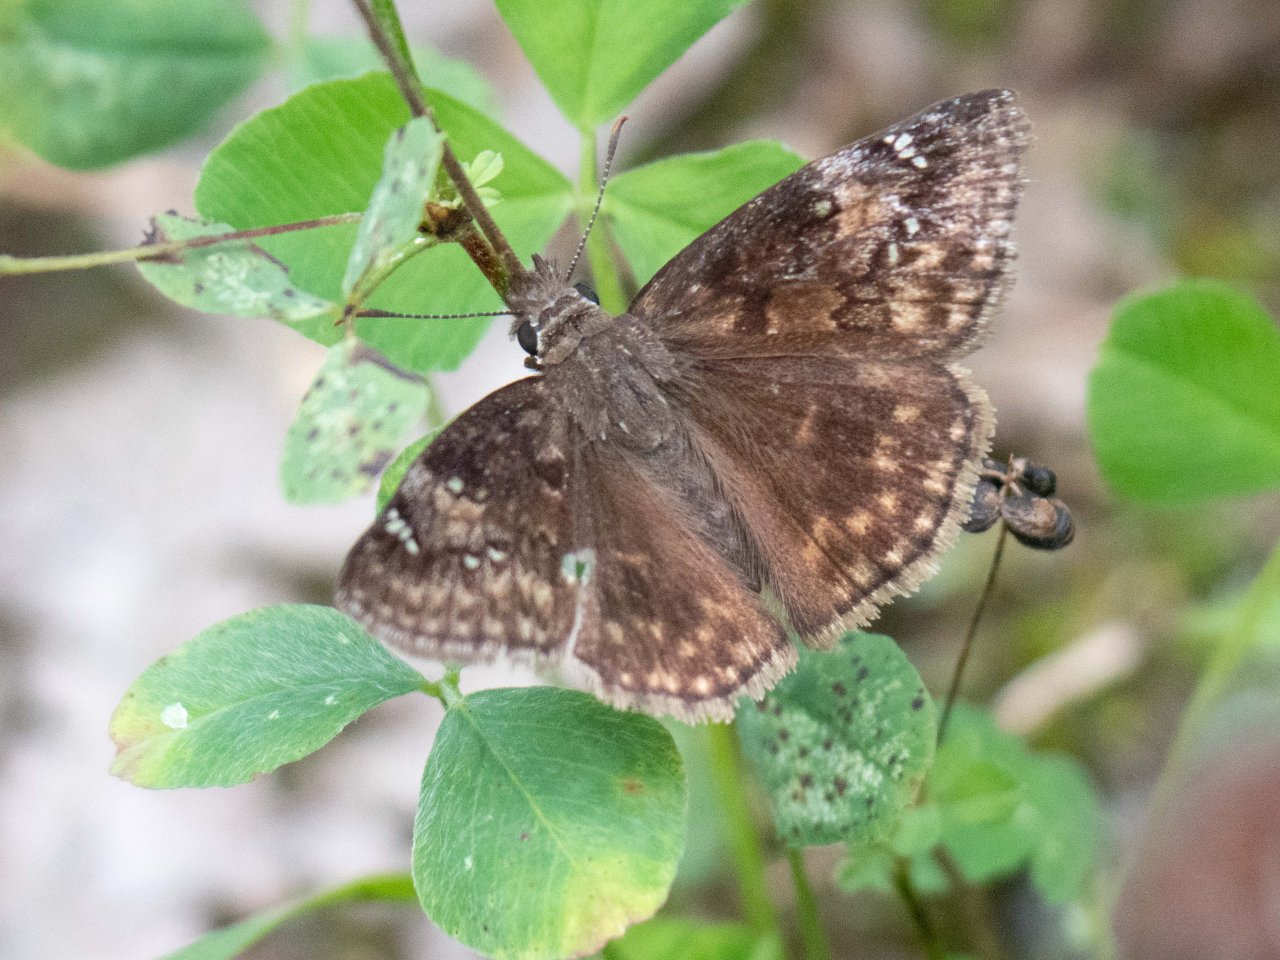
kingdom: Animalia
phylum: Arthropoda
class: Insecta
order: Lepidoptera
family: Hesperiidae
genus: Gesta
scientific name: Gesta
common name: Wild Indigo Duskywing
